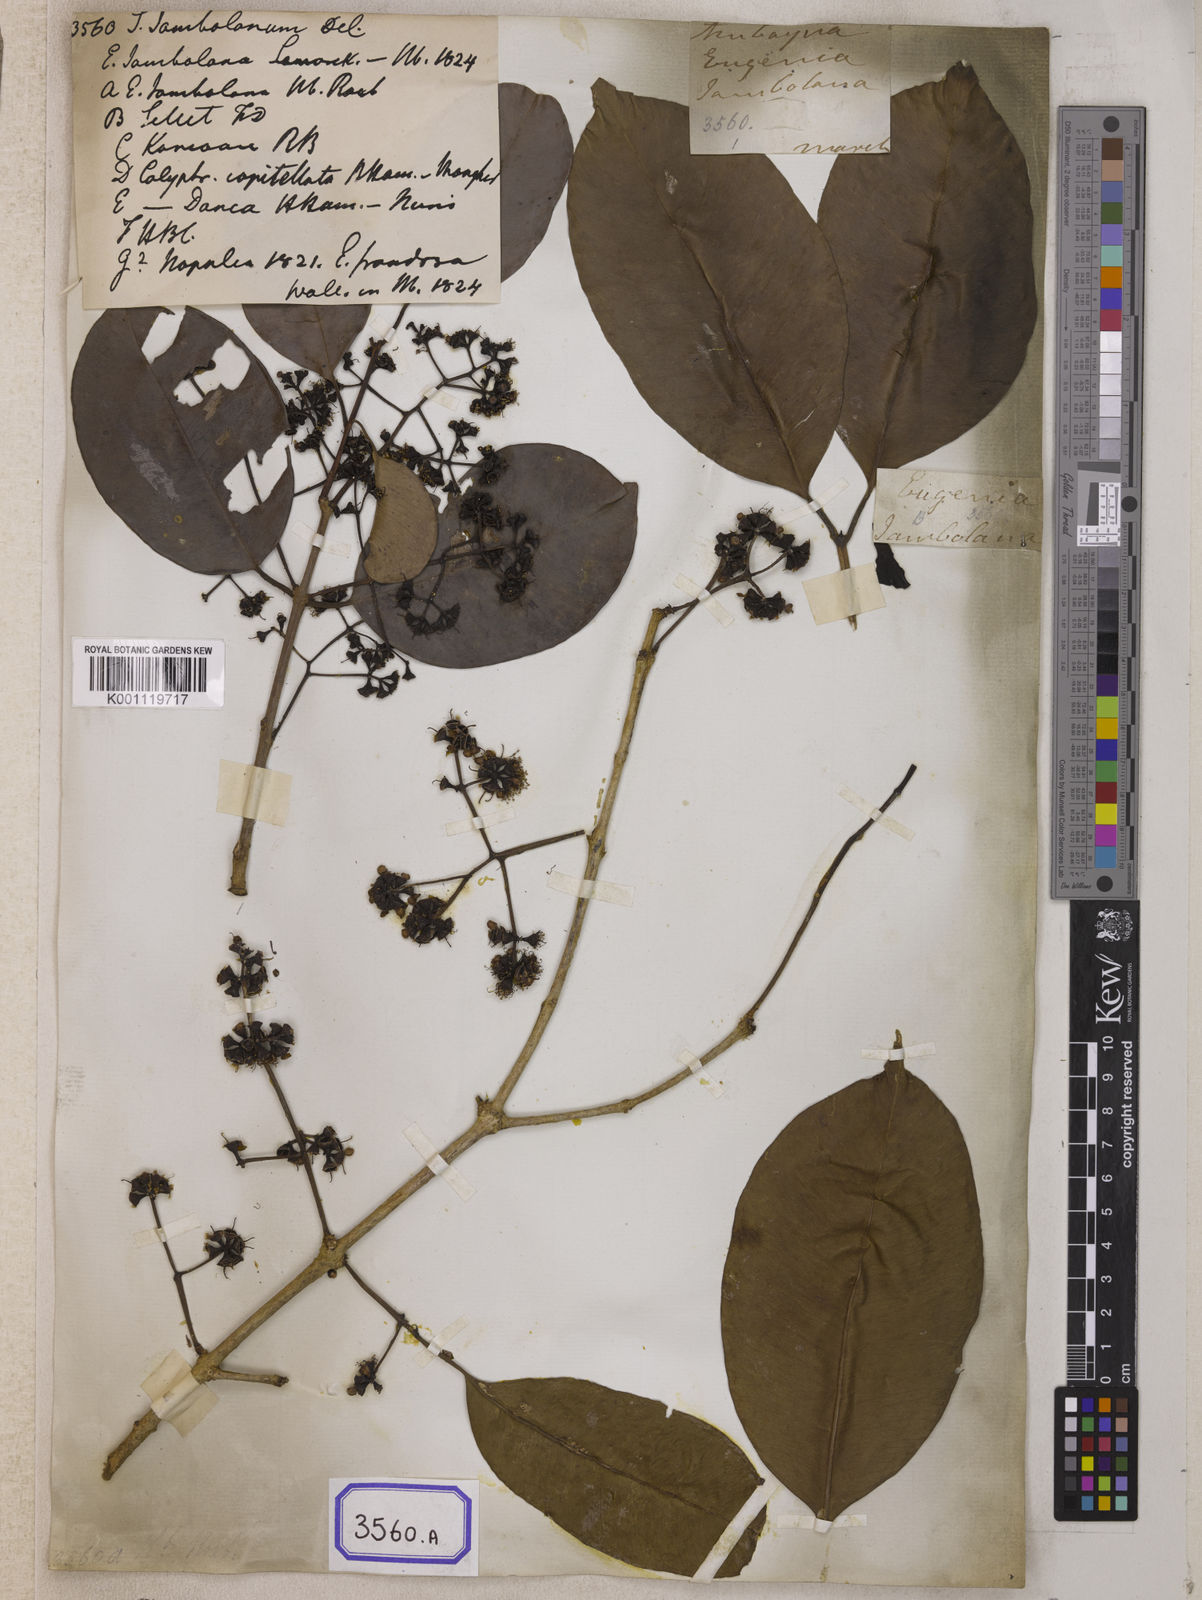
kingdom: Plantae
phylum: Tracheophyta
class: Magnoliopsida
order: Myrtales
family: Myrtaceae
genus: Syzygium
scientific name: Syzygium cumini
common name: Java plum
